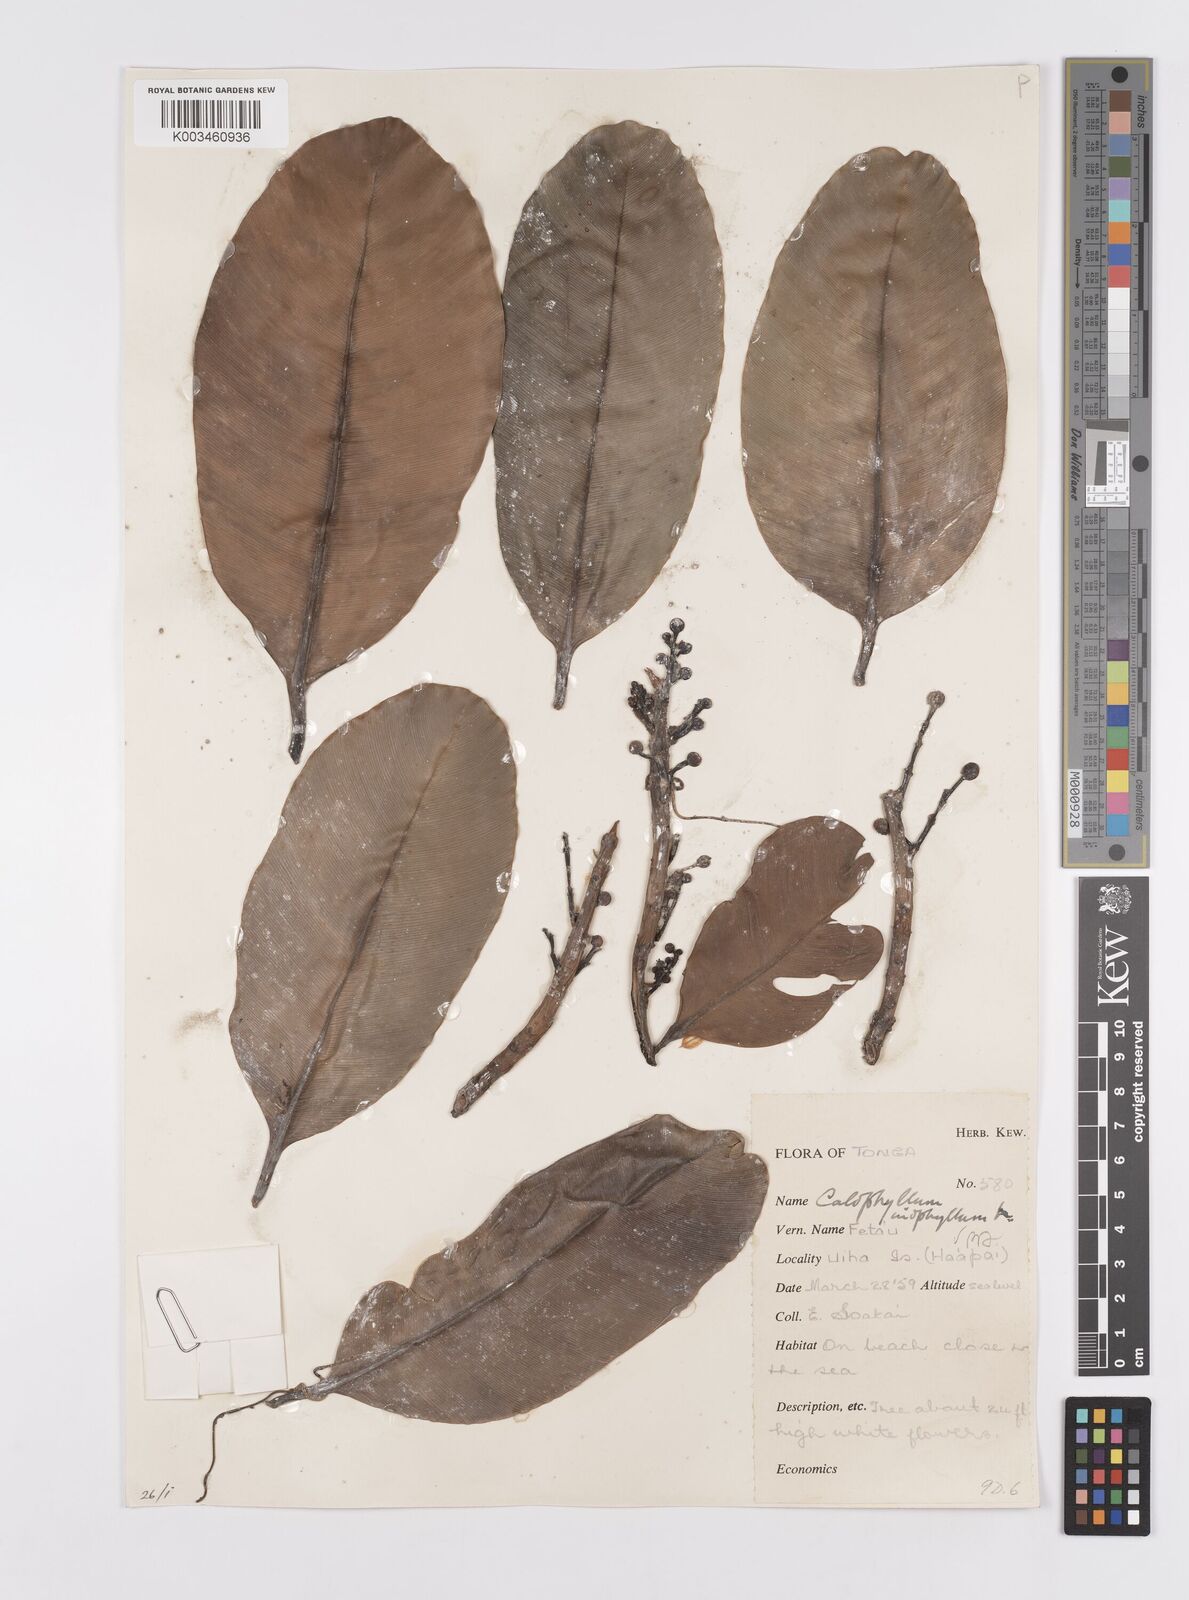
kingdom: Plantae
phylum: Tracheophyta
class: Magnoliopsida
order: Malpighiales
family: Calophyllaceae
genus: Calophyllum
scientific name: Calophyllum inophyllum
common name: Alexandrian laurel
